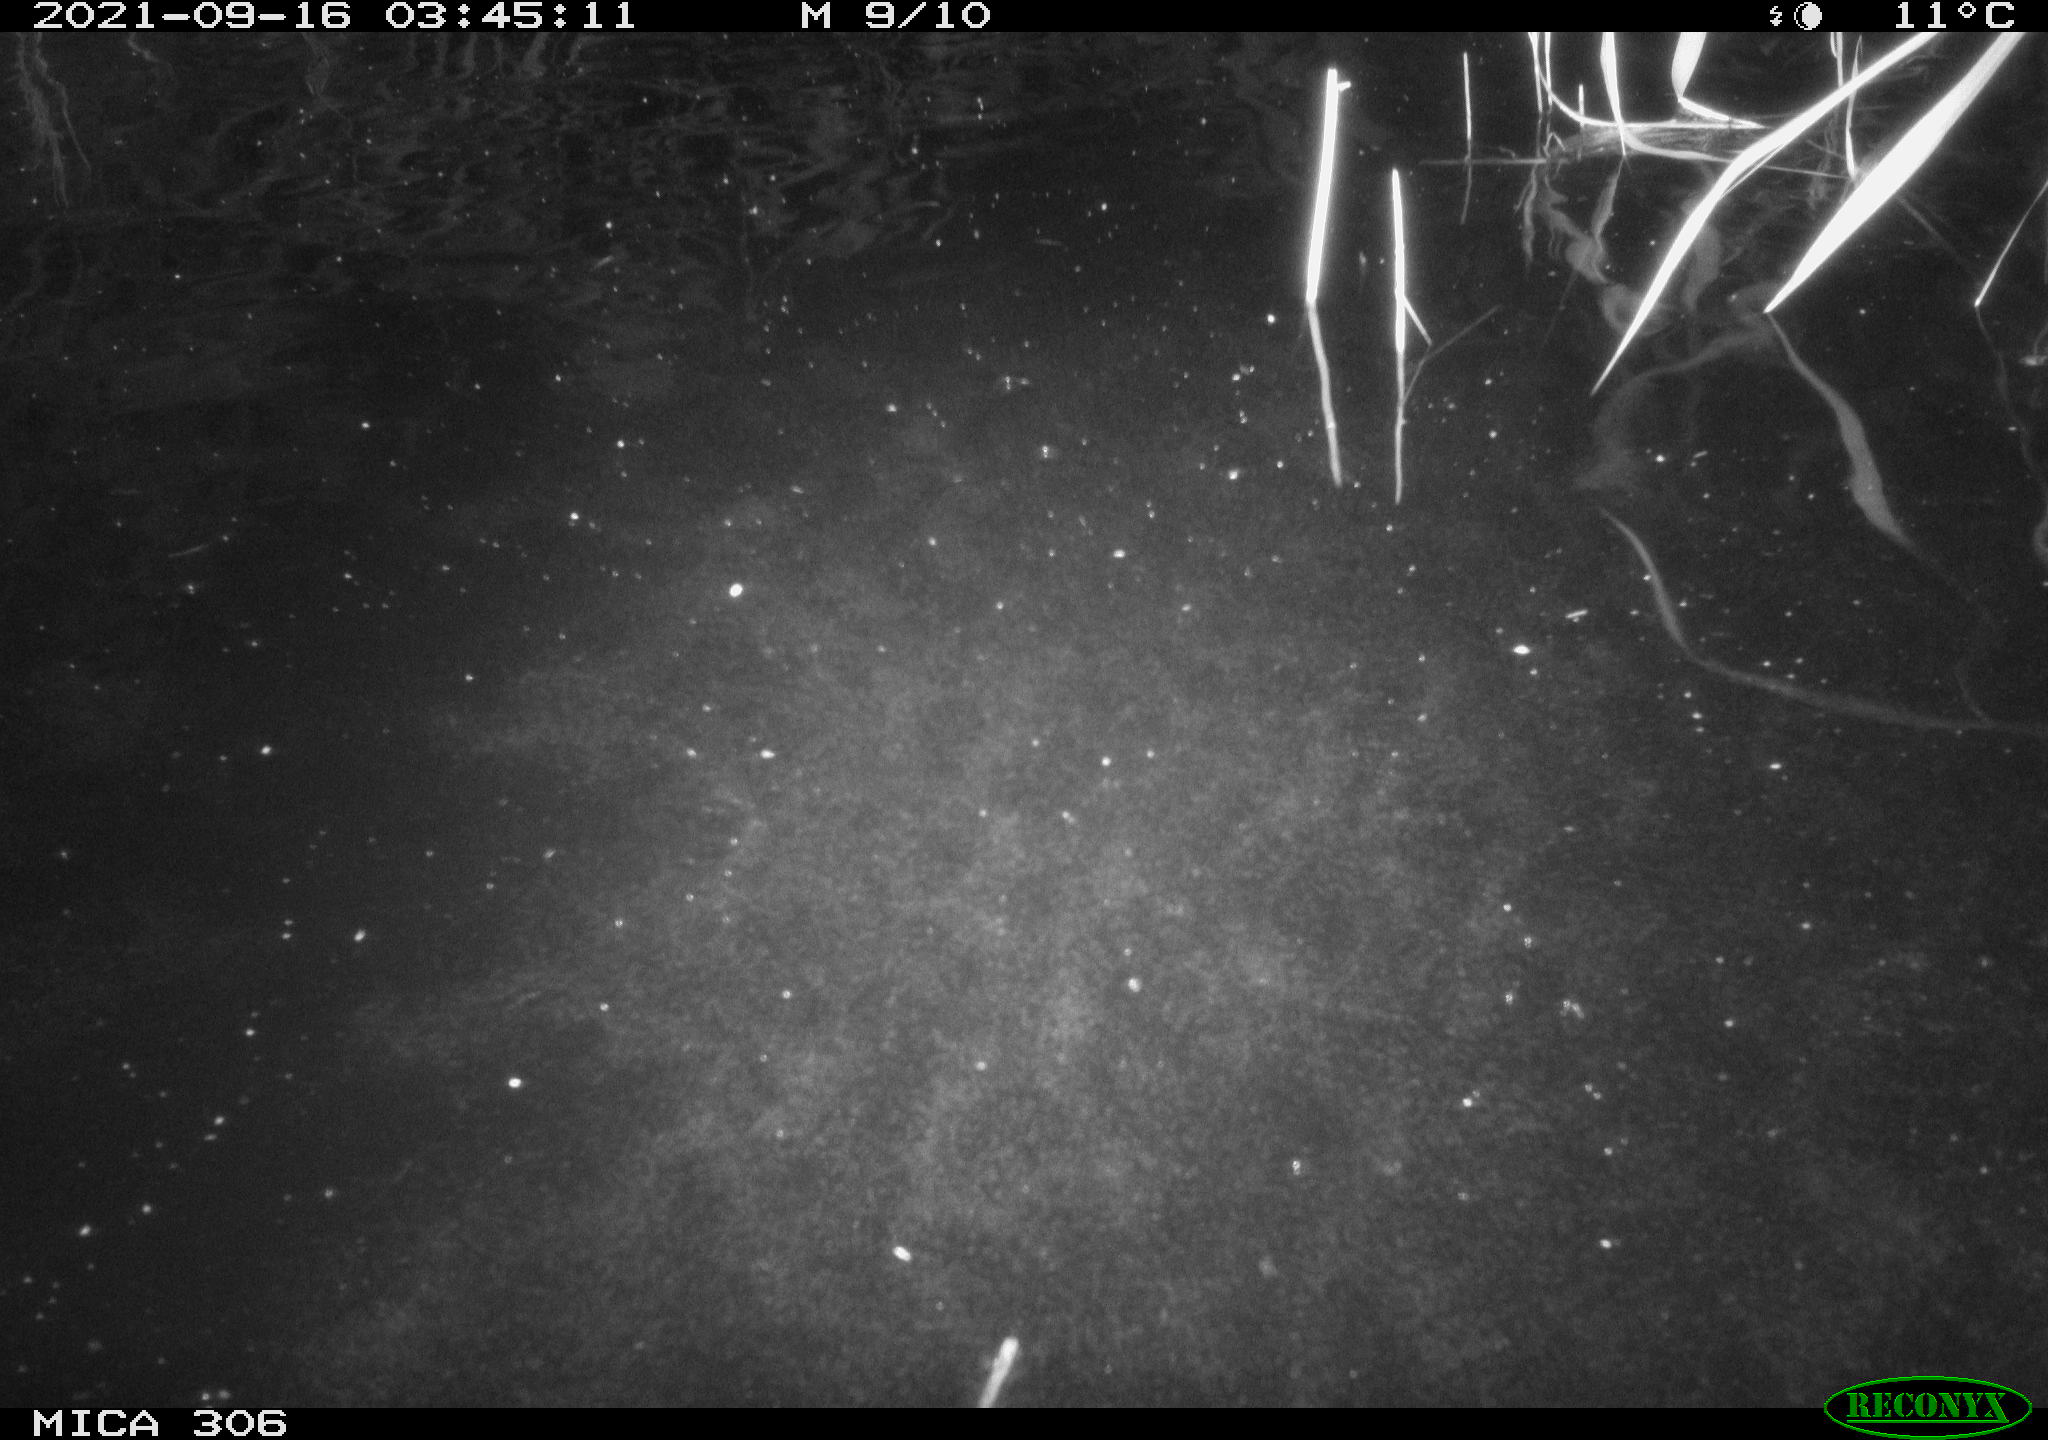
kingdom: Animalia
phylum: Chordata
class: Mammalia
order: Rodentia
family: Cricetidae
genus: Ondatra
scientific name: Ondatra zibethicus
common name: Muskrat
